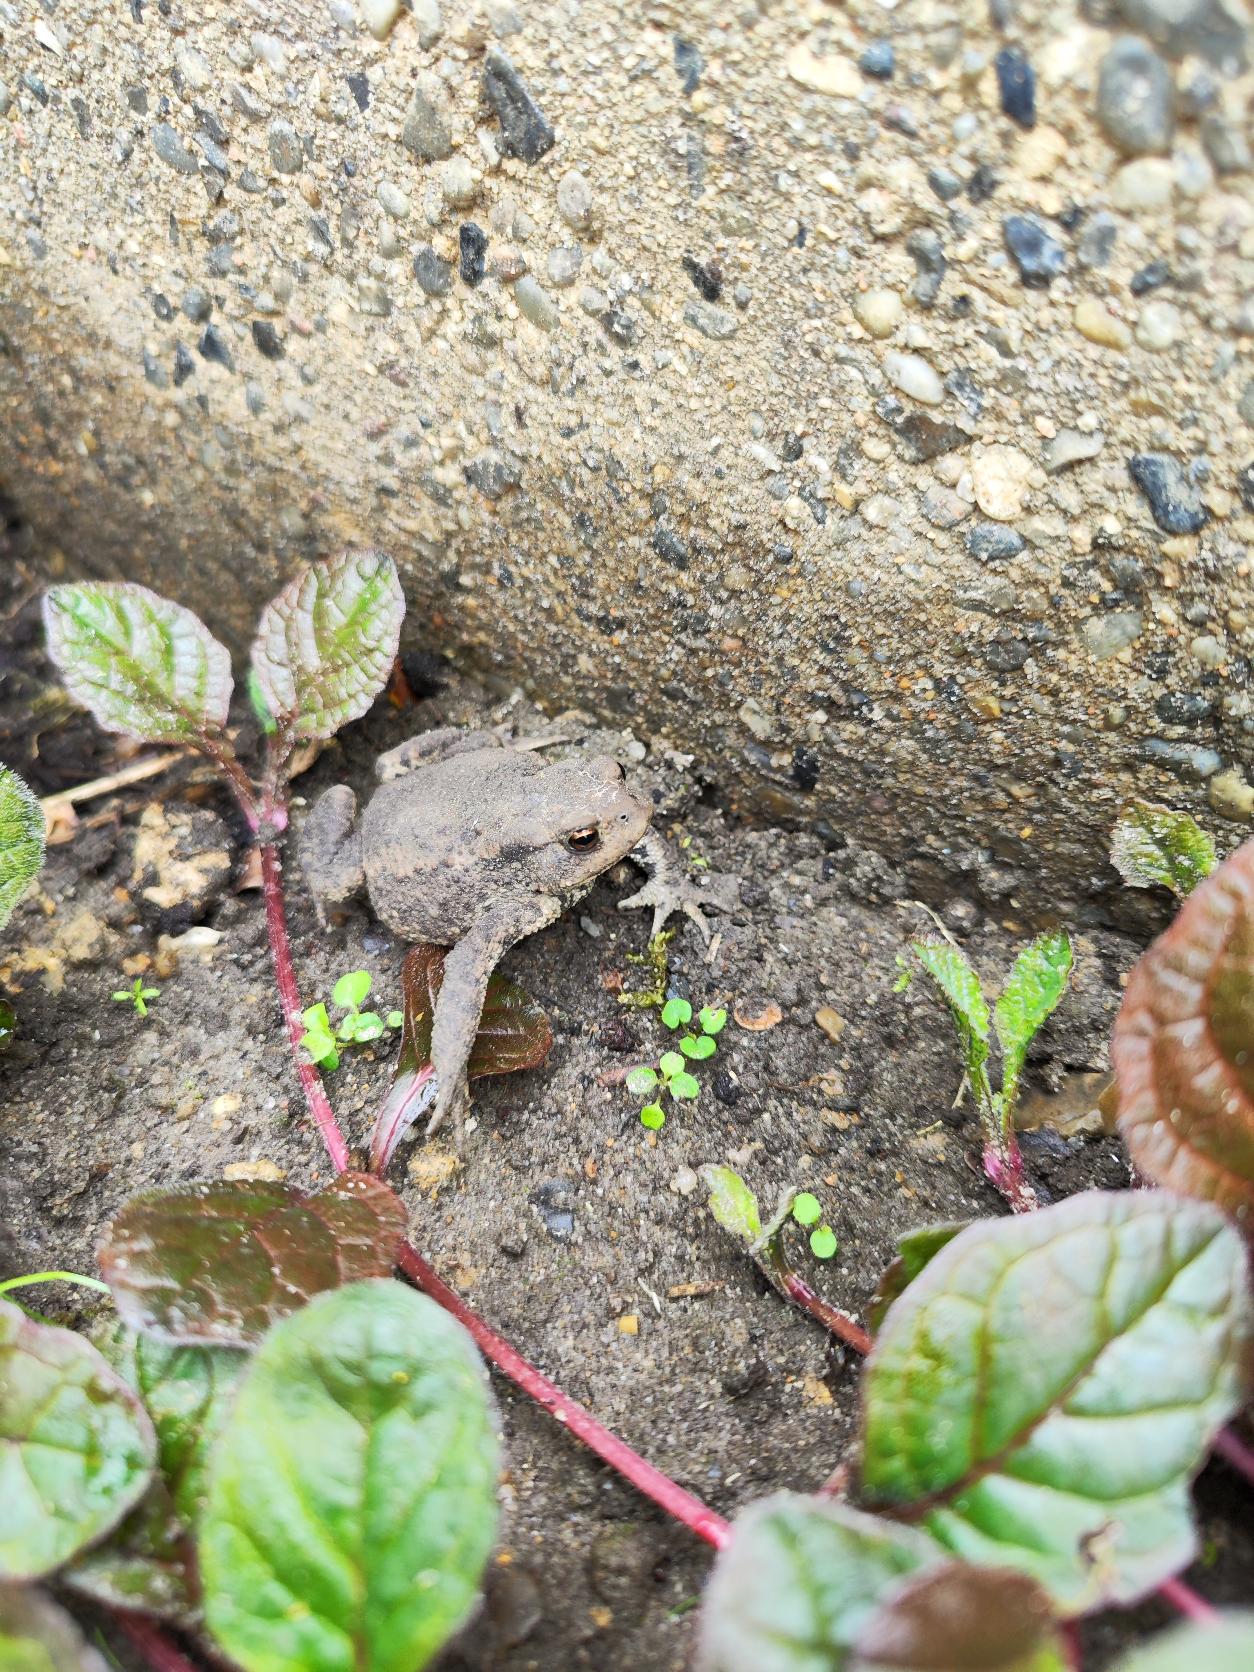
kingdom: Animalia
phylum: Chordata
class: Amphibia
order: Anura
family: Bufonidae
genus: Bufo
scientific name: Bufo bufo
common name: Skrubtudse
